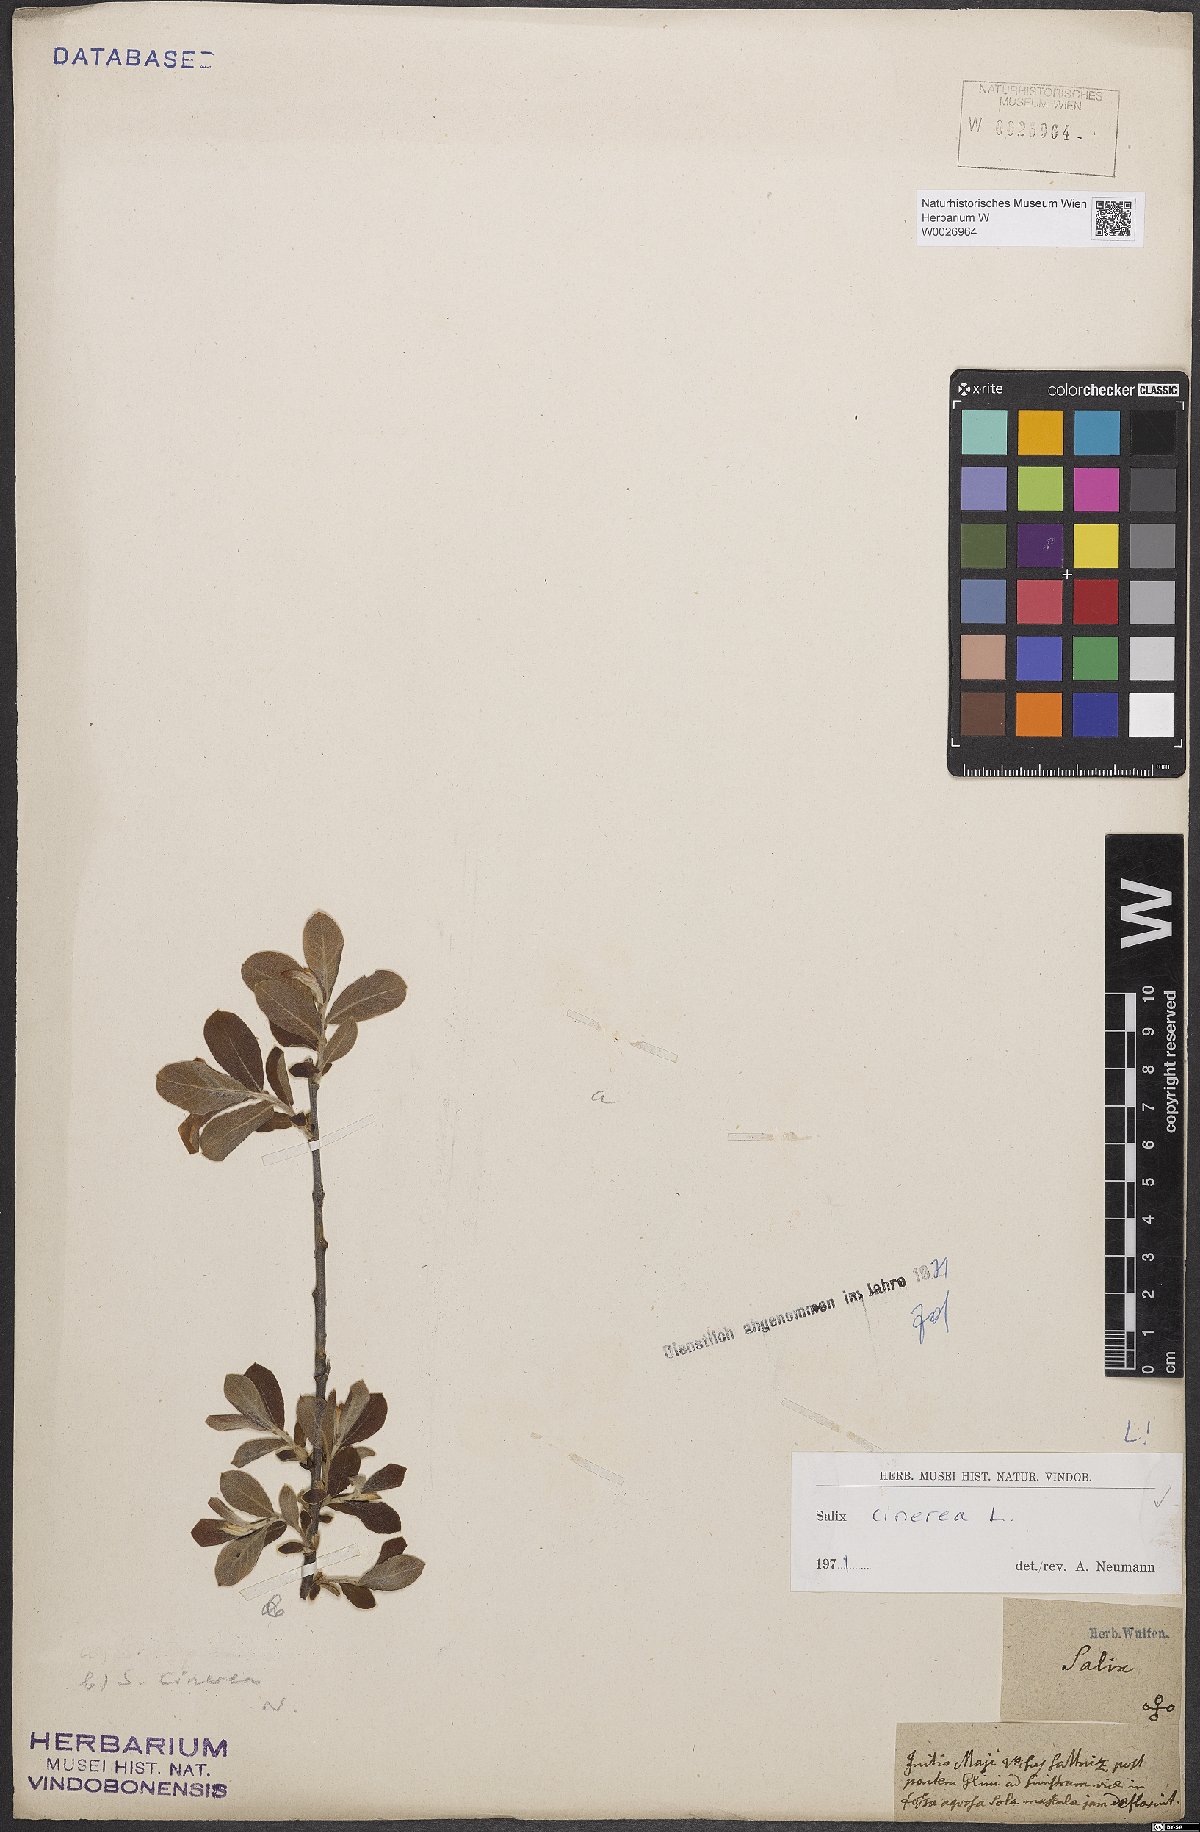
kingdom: Plantae
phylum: Tracheophyta
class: Magnoliopsida
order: Malpighiales
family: Salicaceae
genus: Salix
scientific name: Salix cinerea
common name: Common sallow
